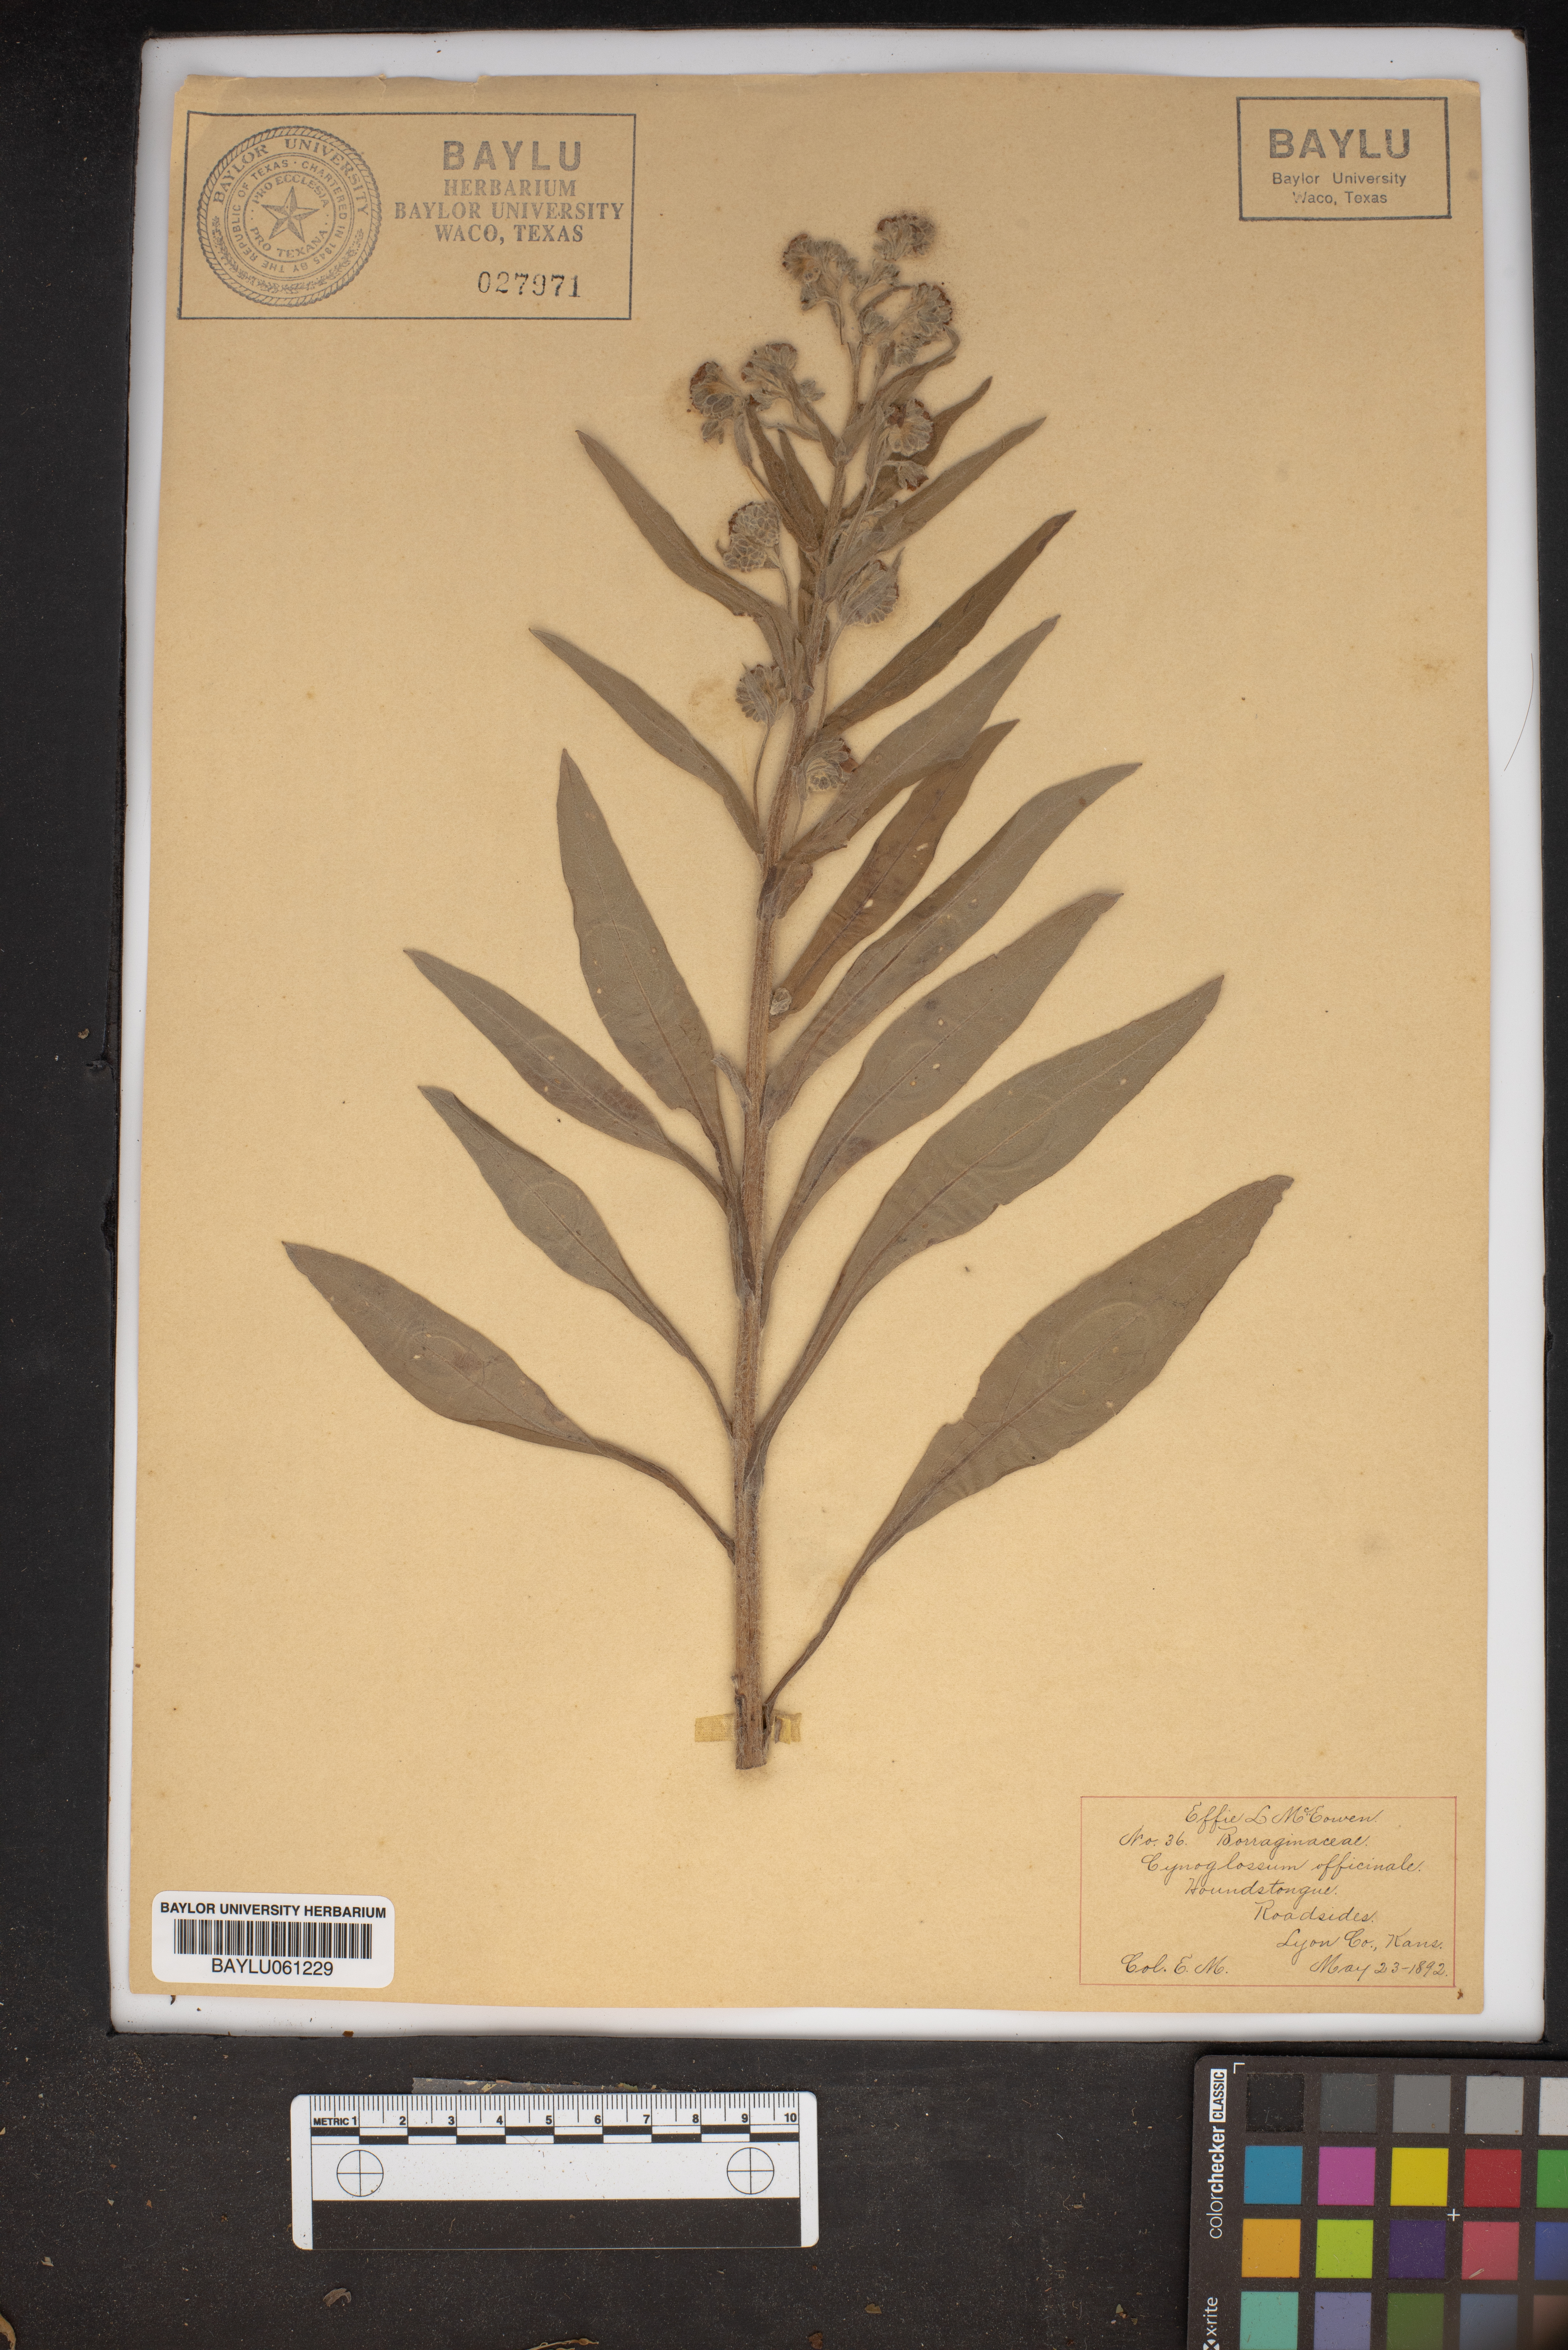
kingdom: Plantae
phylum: Tracheophyta
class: Magnoliopsida
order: Boraginales
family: Boraginaceae
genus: Cynoglossum
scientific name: Cynoglossum officinale
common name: Hound's-tongue
